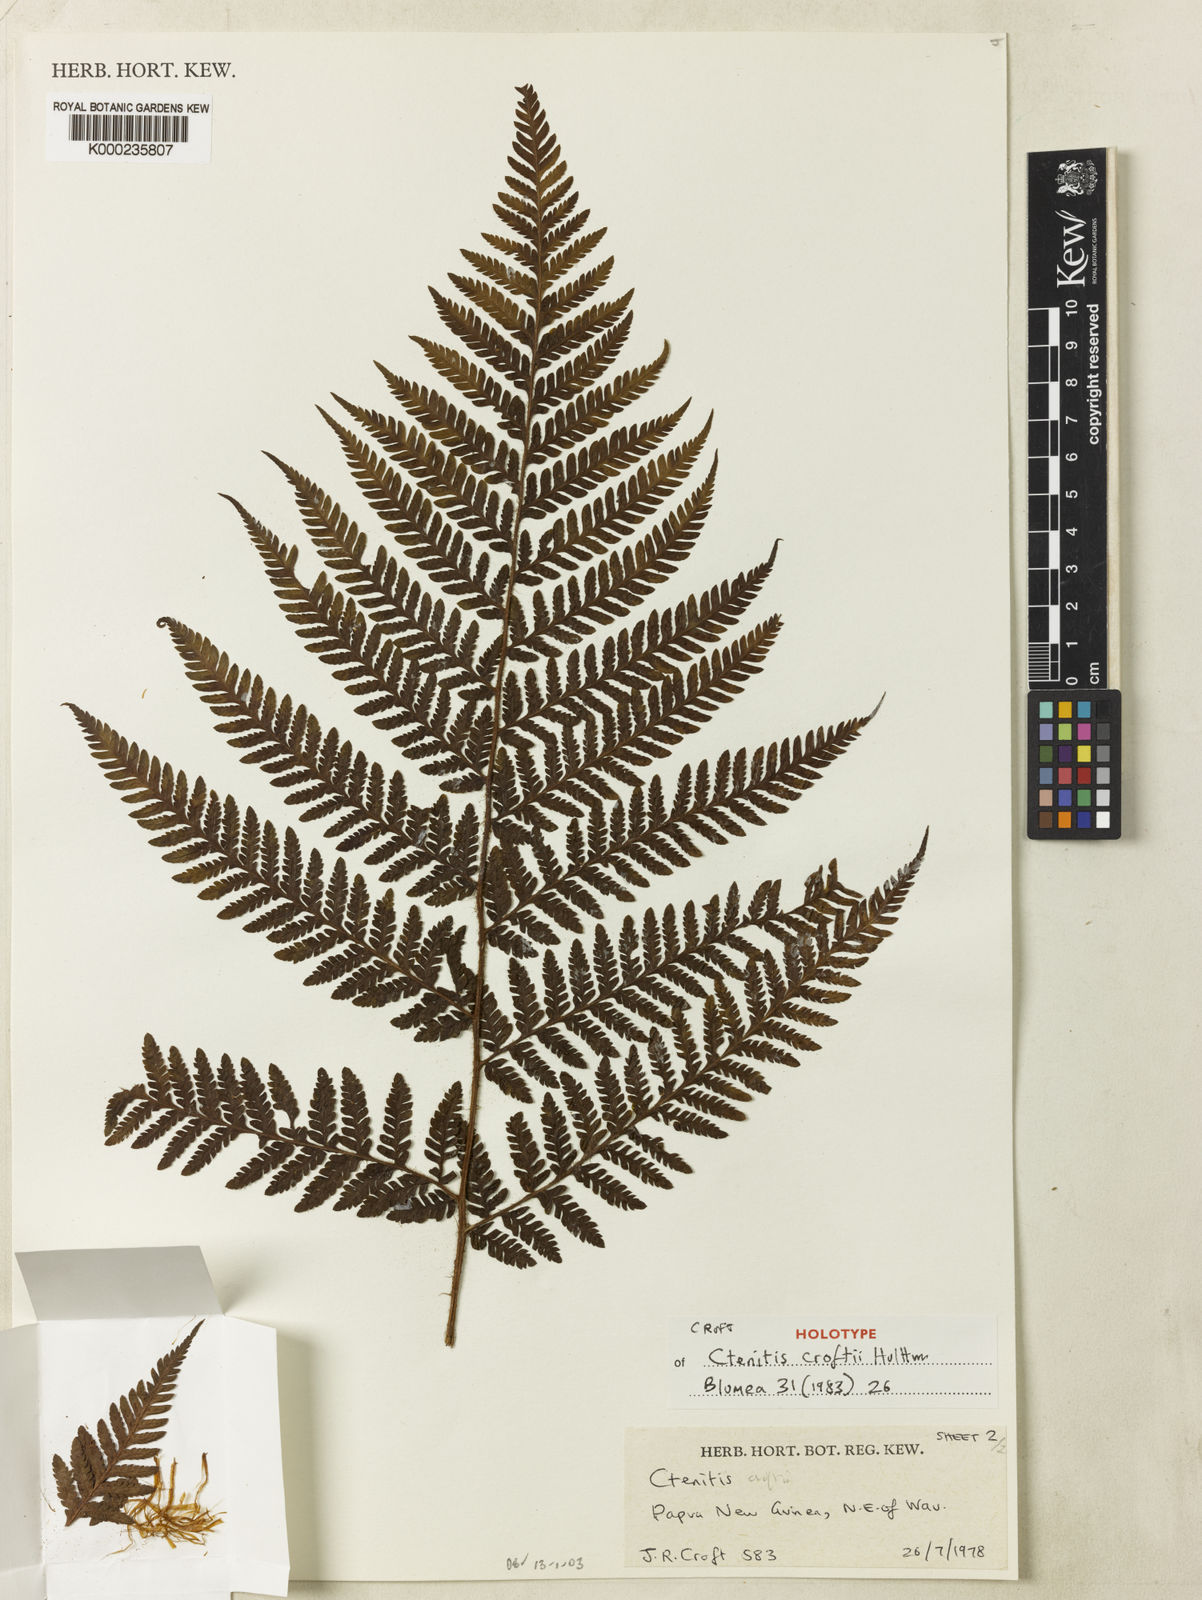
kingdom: Plantae
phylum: Tracheophyta
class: Polypodiopsida
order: Polypodiales
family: Dryopteridaceae
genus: Ctenitis
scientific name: Ctenitis croftii
